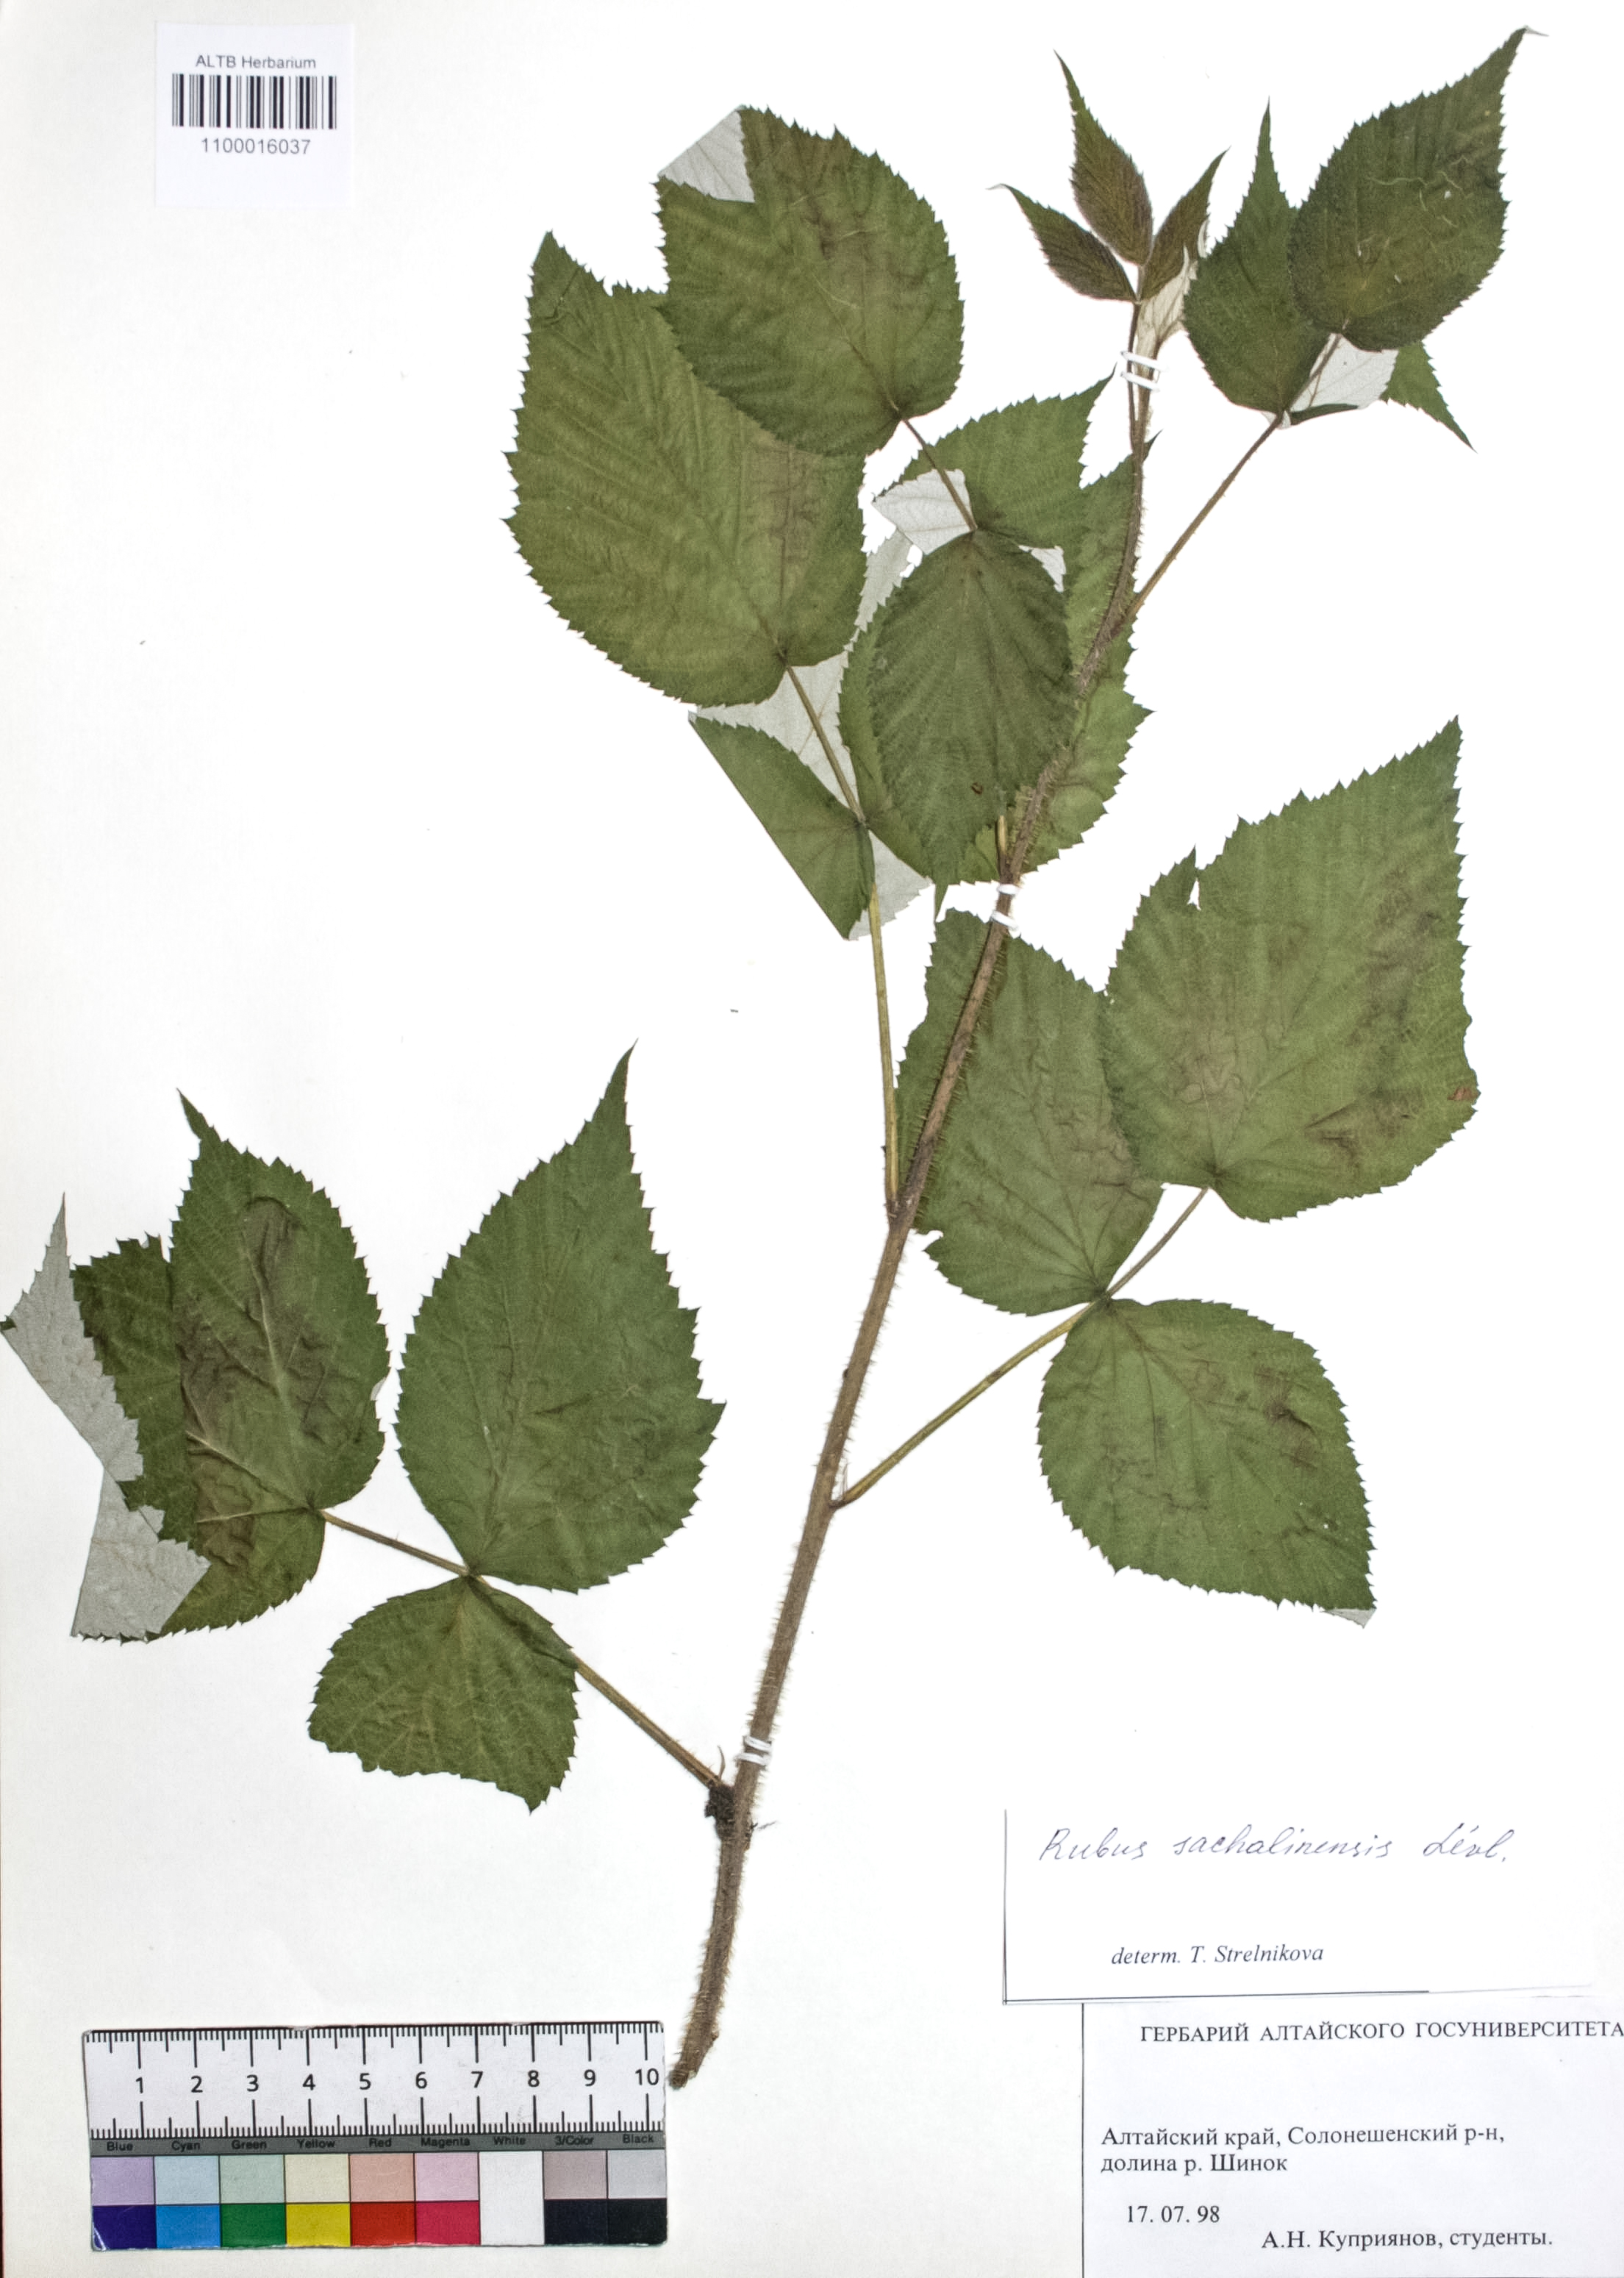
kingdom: Plantae
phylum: Tracheophyta
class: Magnoliopsida
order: Rosales
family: Rosaceae
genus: Rubus
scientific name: Rubus sachalinensis
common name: Red raspberry
